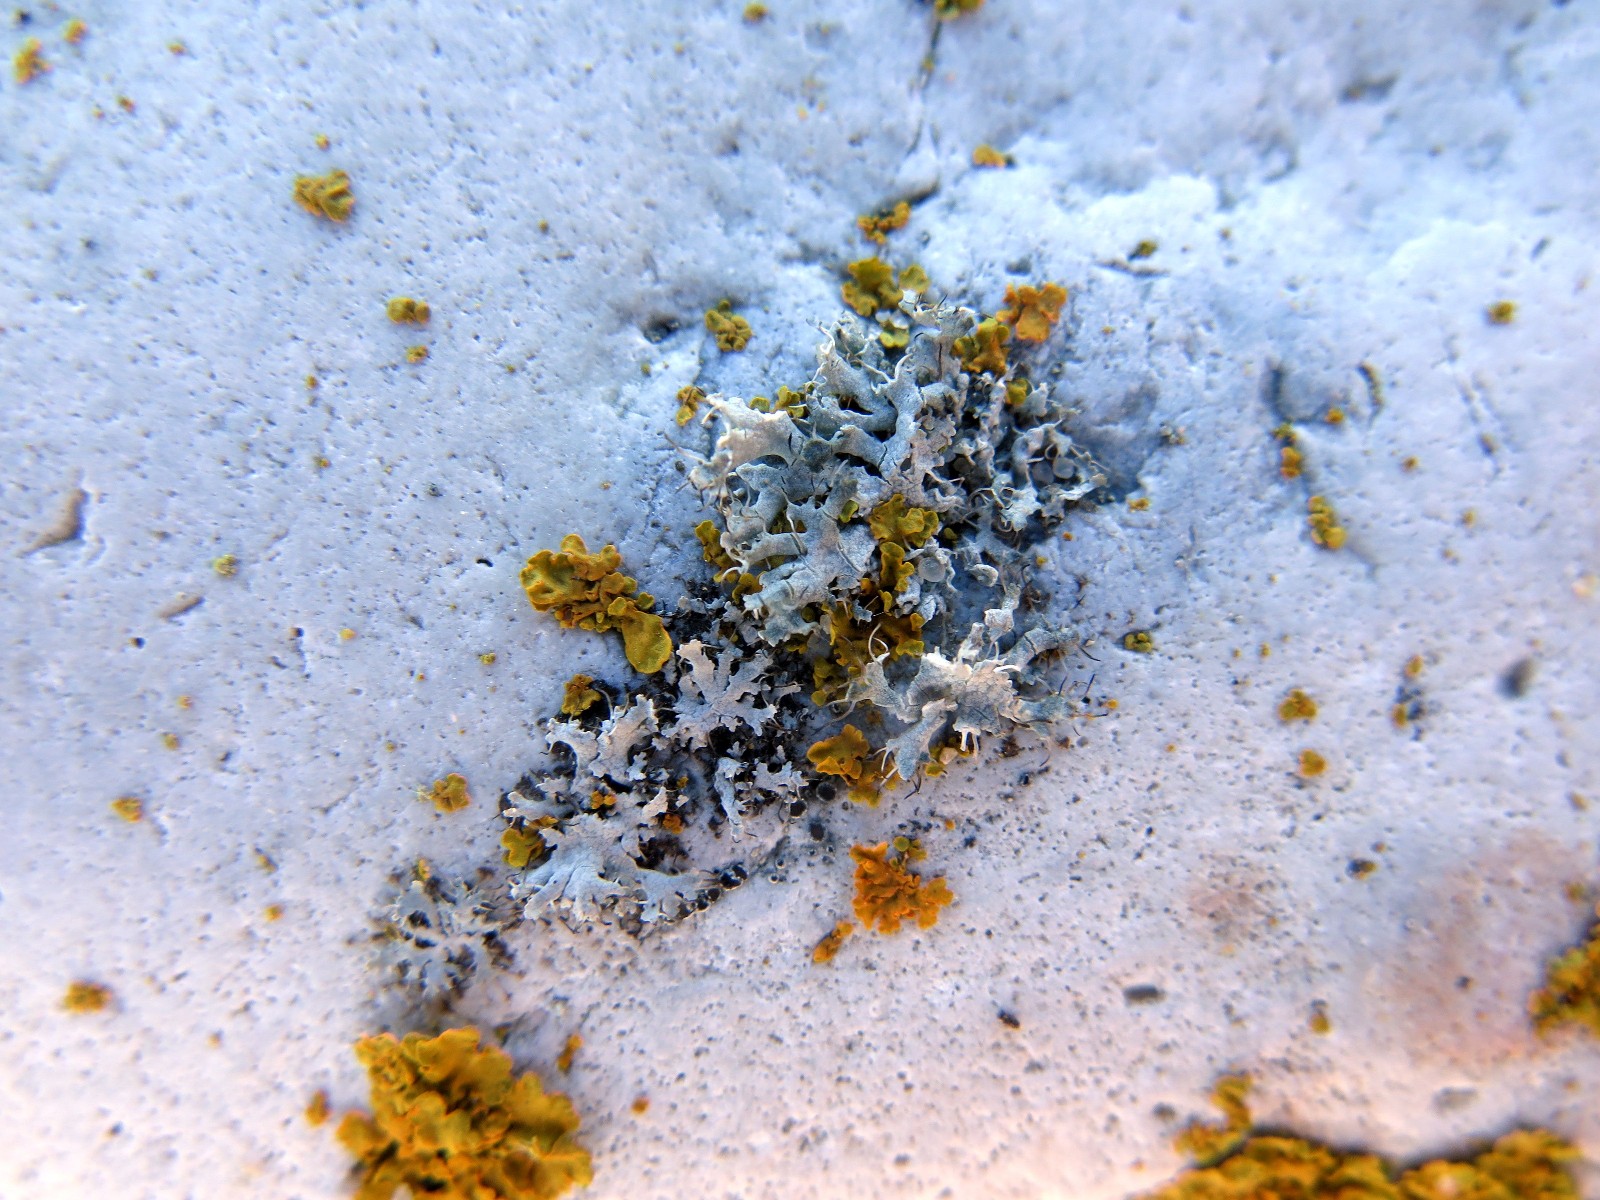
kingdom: Fungi
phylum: Ascomycota
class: Lecanoromycetes
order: Caliciales
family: Physciaceae
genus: Physcia
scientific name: Physcia tenella
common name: spæd rosetlav
